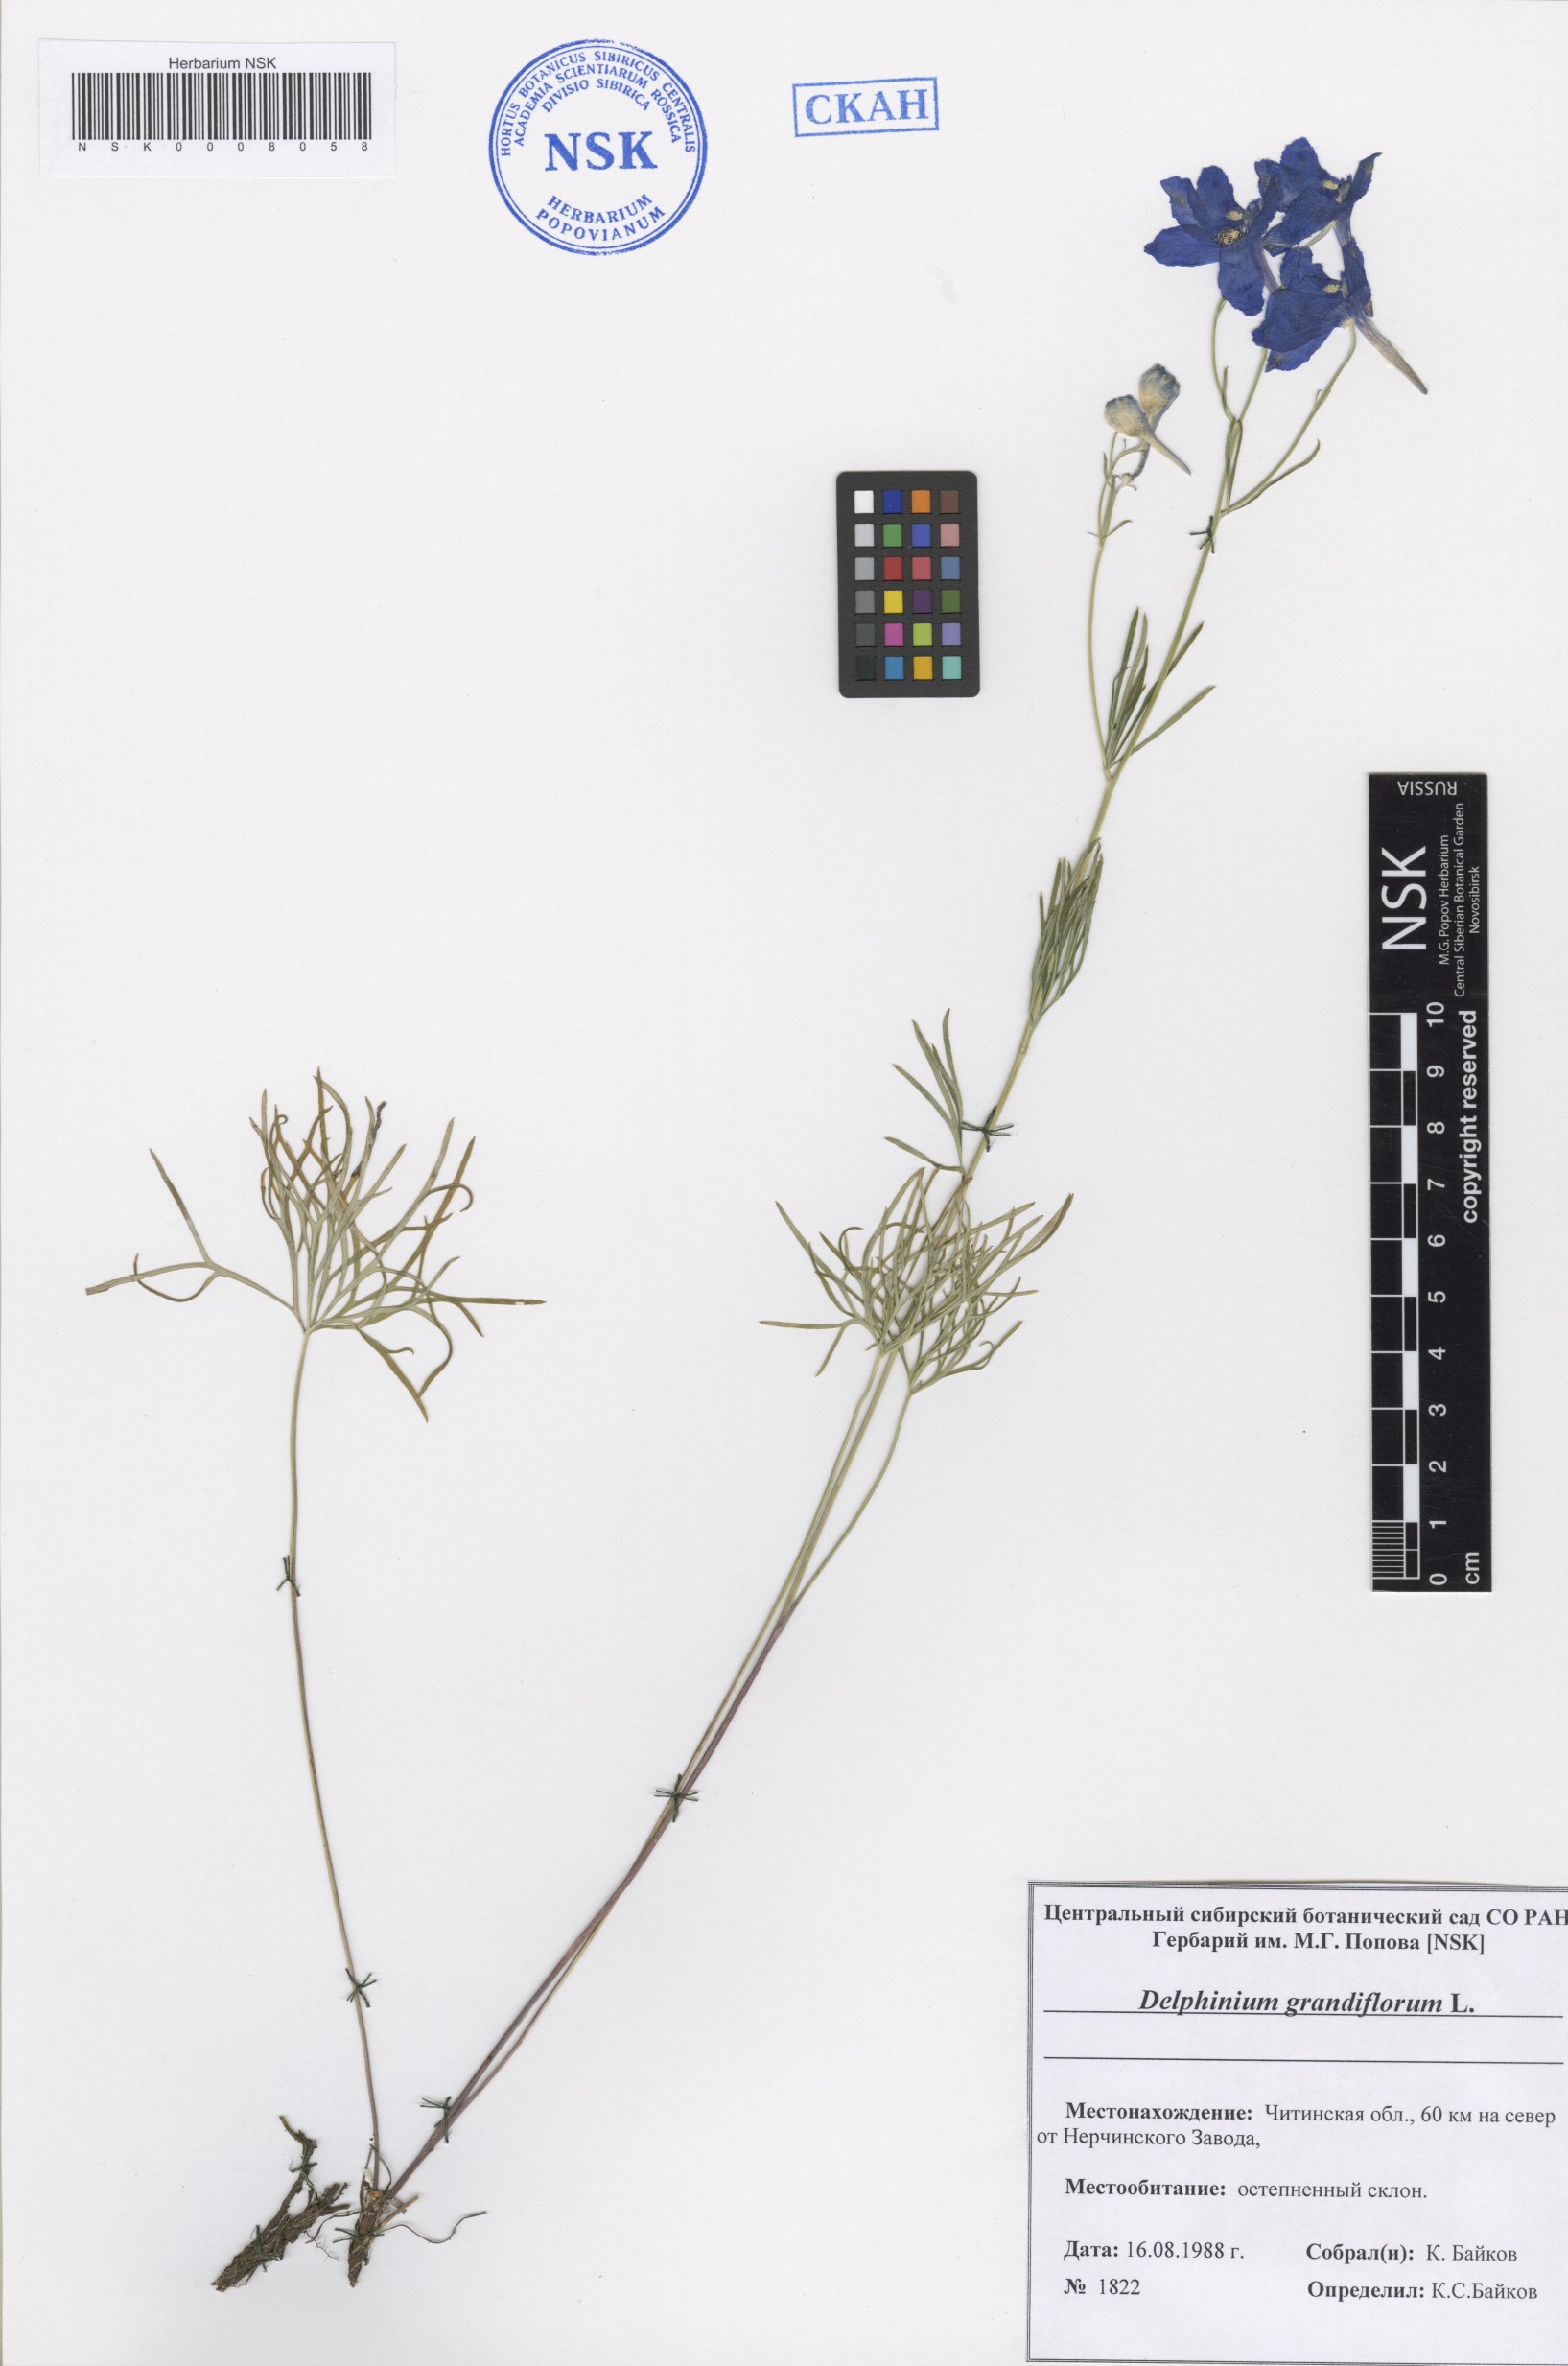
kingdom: Plantae
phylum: Tracheophyta
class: Magnoliopsida
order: Ranunculales
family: Ranunculaceae
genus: Delphinium
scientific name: Delphinium grandiflorum
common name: Siberian larkspur
